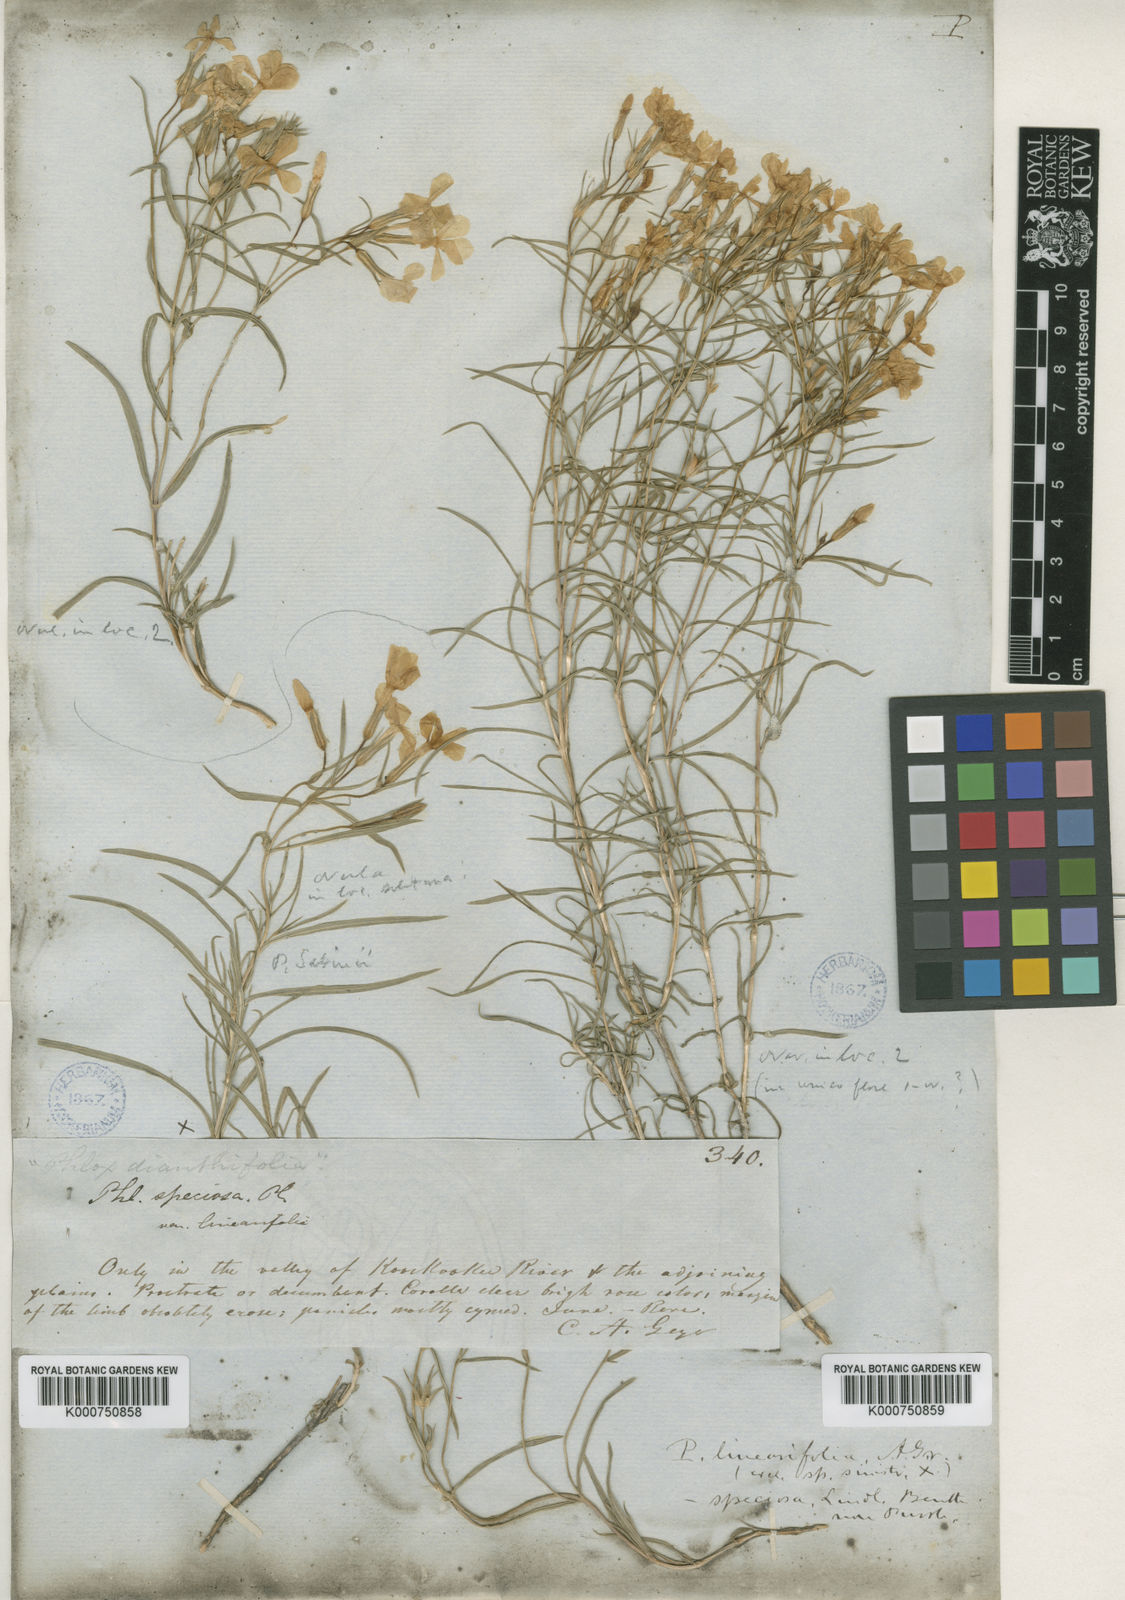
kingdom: Plantae
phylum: Tracheophyta
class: Magnoliopsida
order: Ericales
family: Polemoniaceae
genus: Phlox
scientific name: Phlox speciosa
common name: Bush phlox
